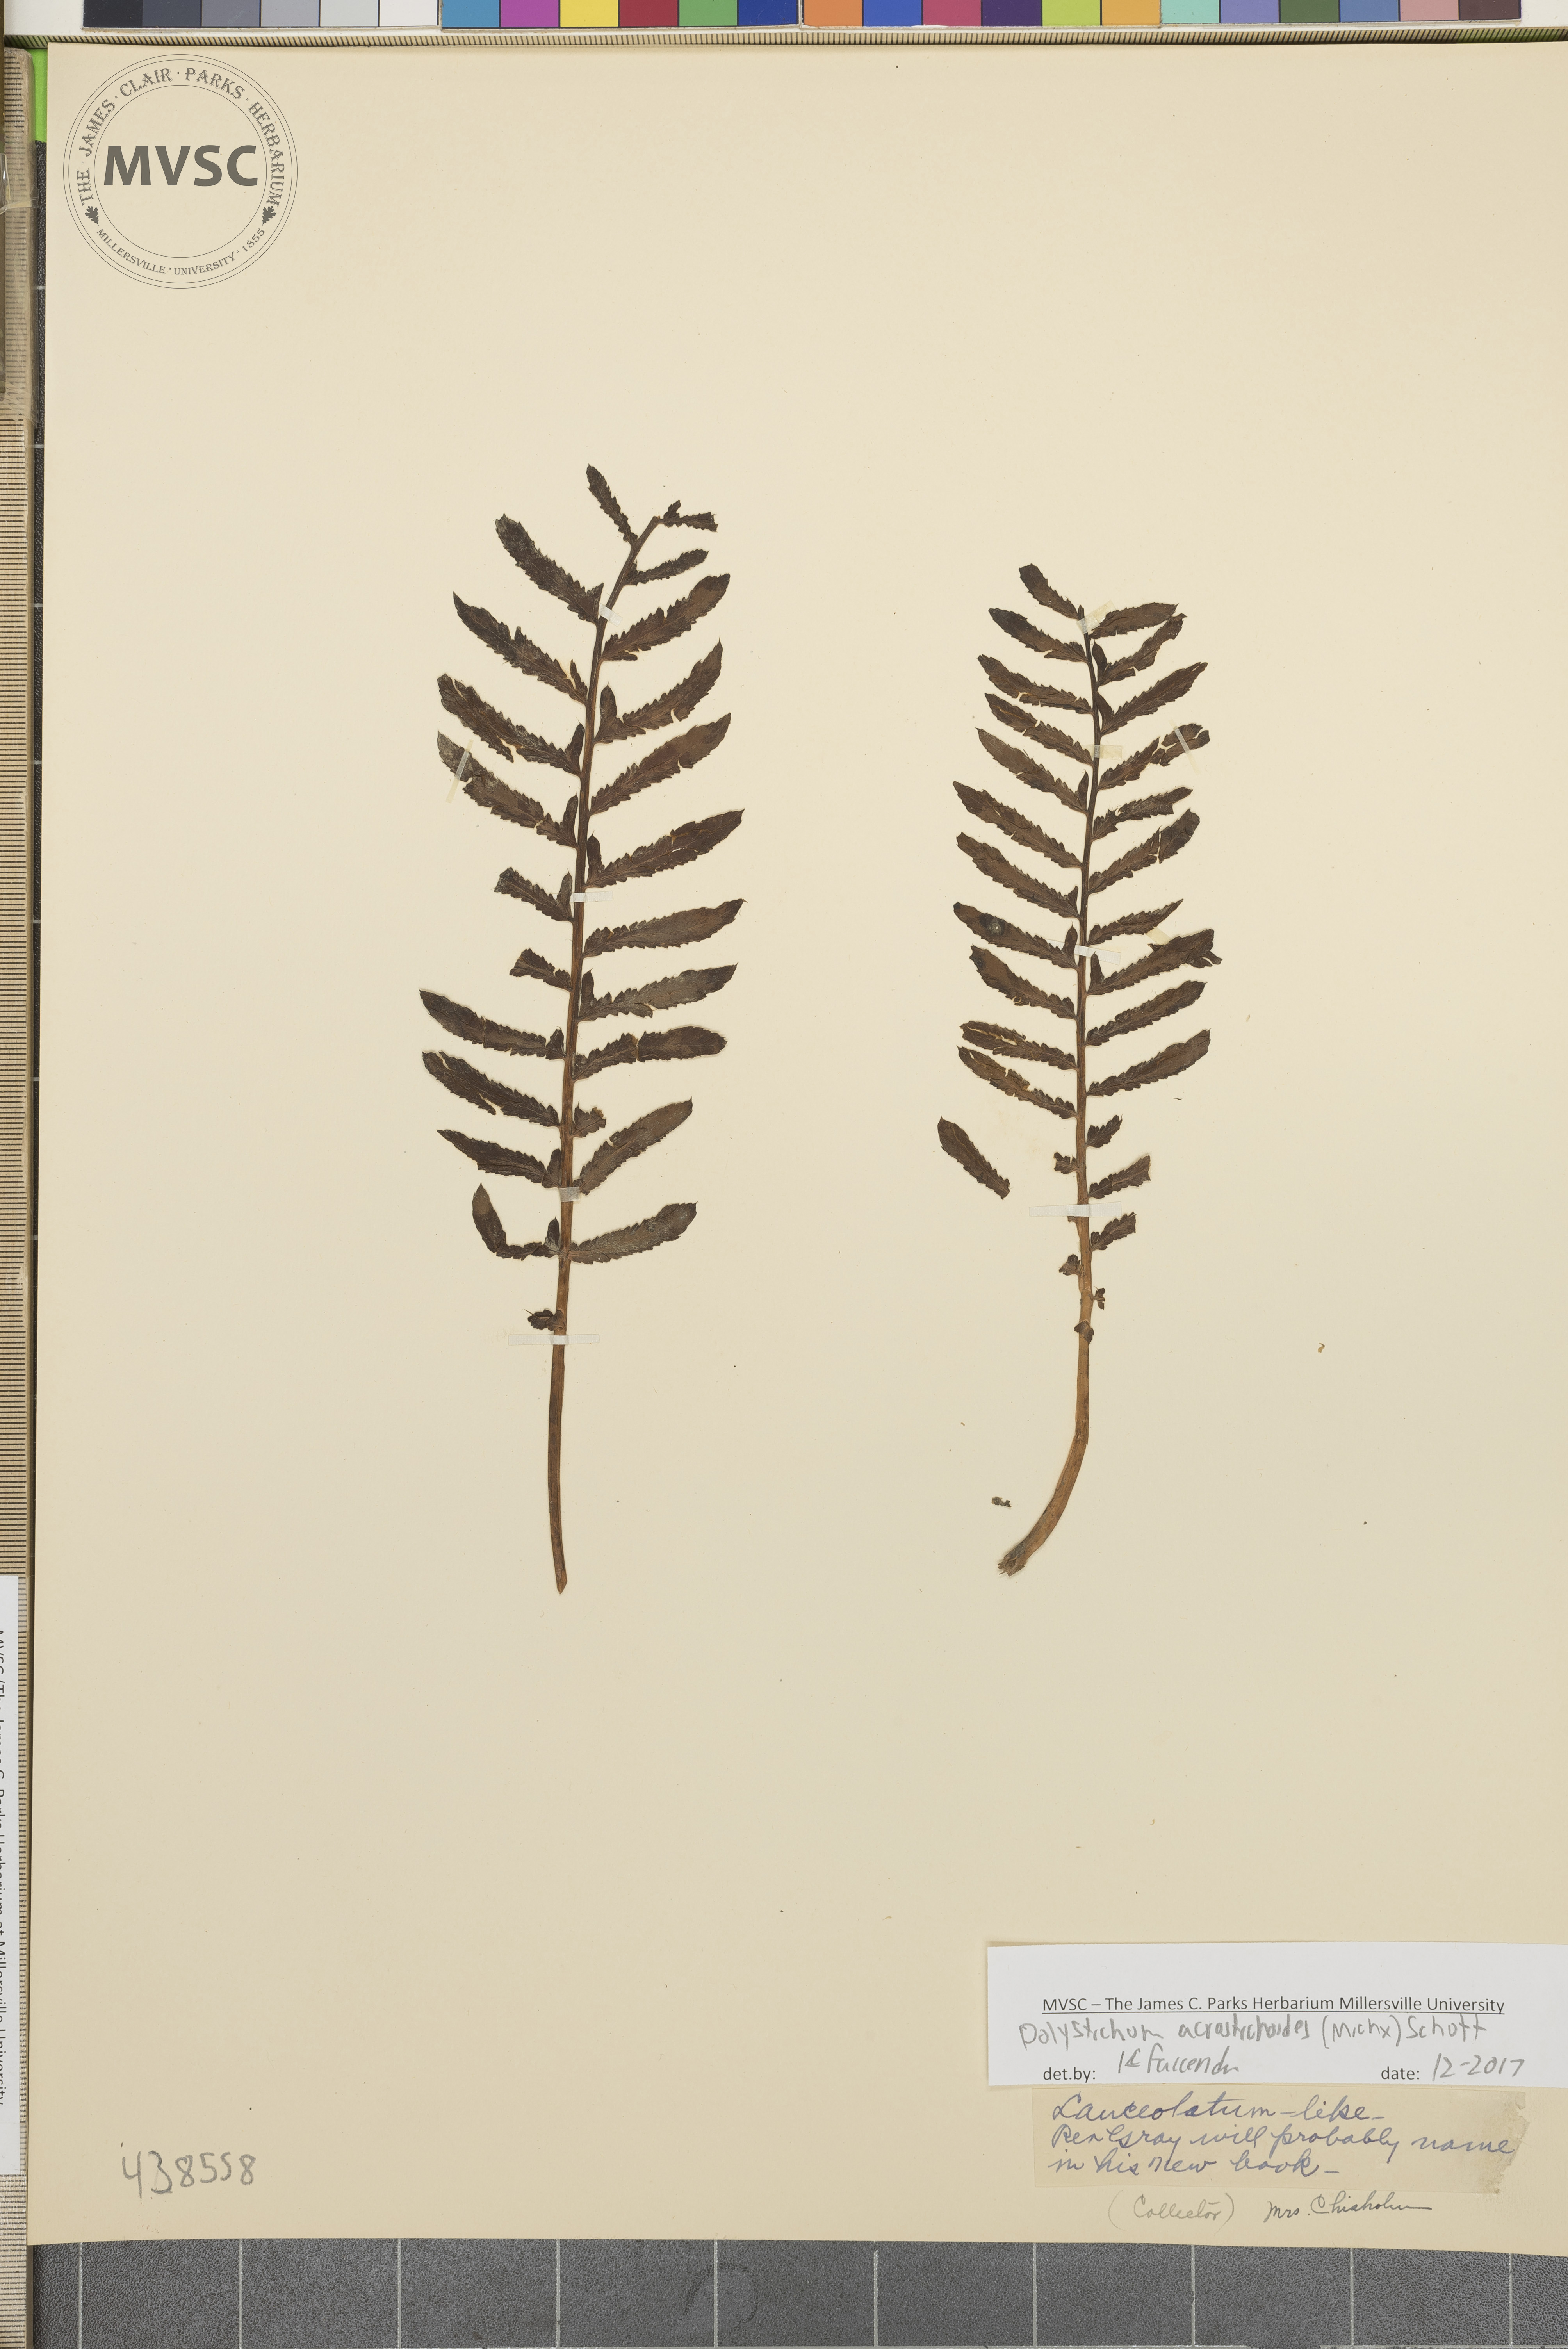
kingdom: Plantae
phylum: Tracheophyta
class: Polypodiopsida
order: Polypodiales
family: Dryopteridaceae
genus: Polystichum
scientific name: Polystichum acrostichoides
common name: Christmas fern
